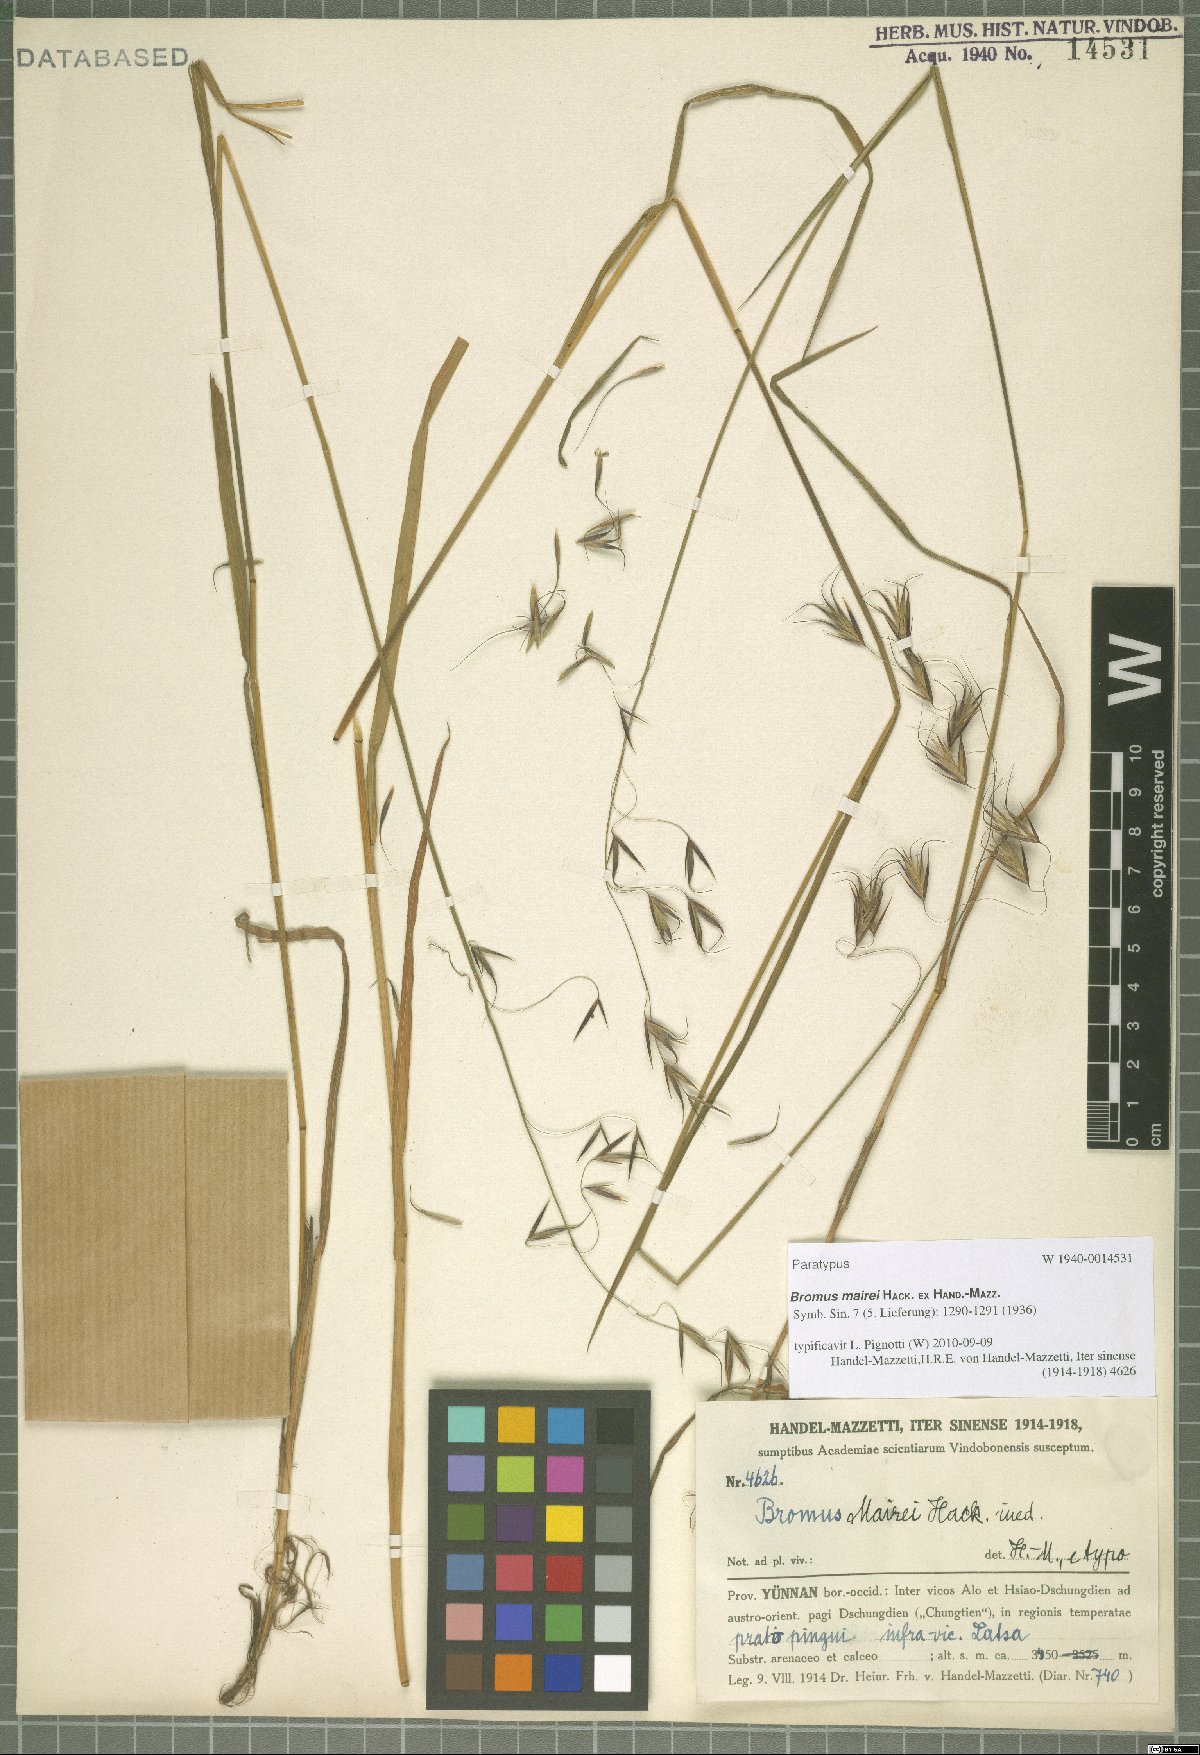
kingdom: Plantae
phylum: Tracheophyta
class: Liliopsida
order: Poales
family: Poaceae
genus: Bromus
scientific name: Bromus mairei
